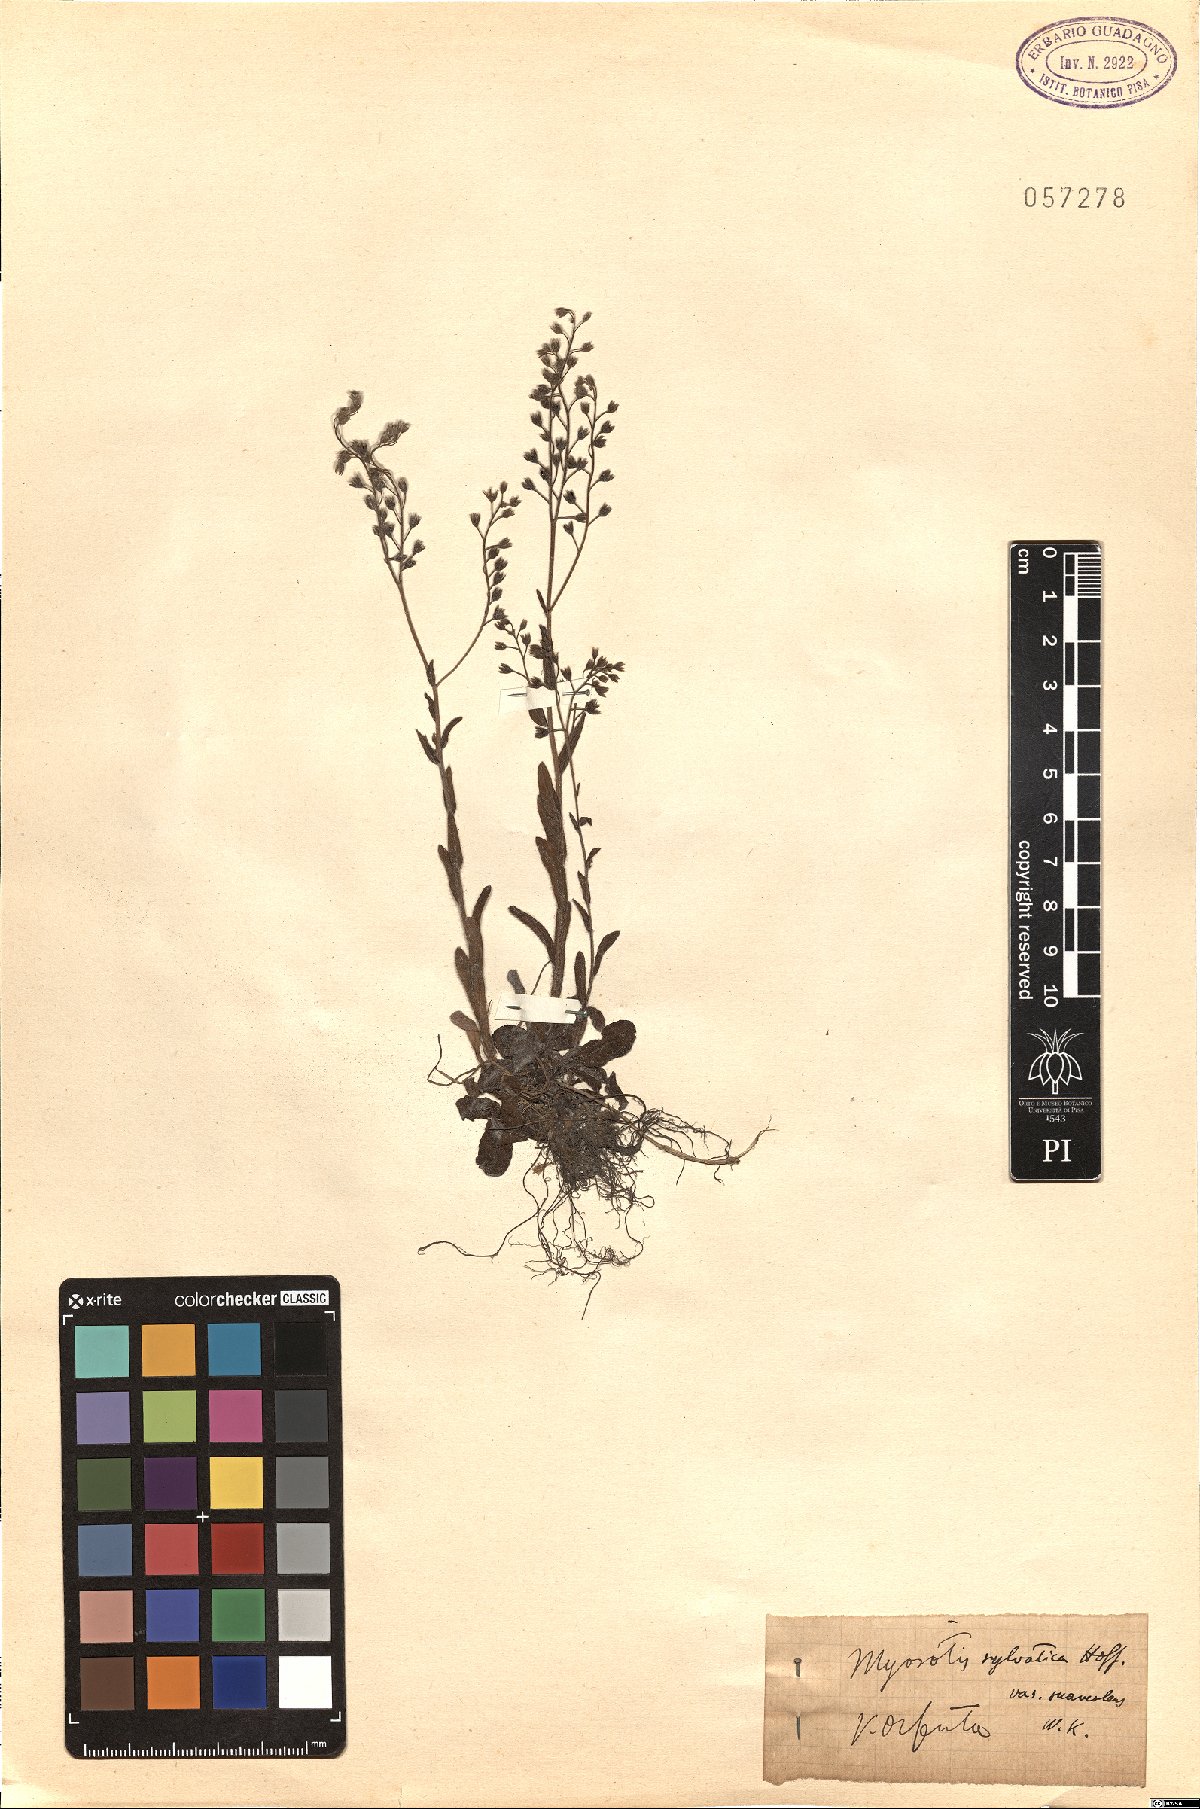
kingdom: Plantae
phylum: Tracheophyta
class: Magnoliopsida
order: Boraginales
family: Boraginaceae
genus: Myosotis
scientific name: Myosotis sylvatica
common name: Wood forget-me-not
